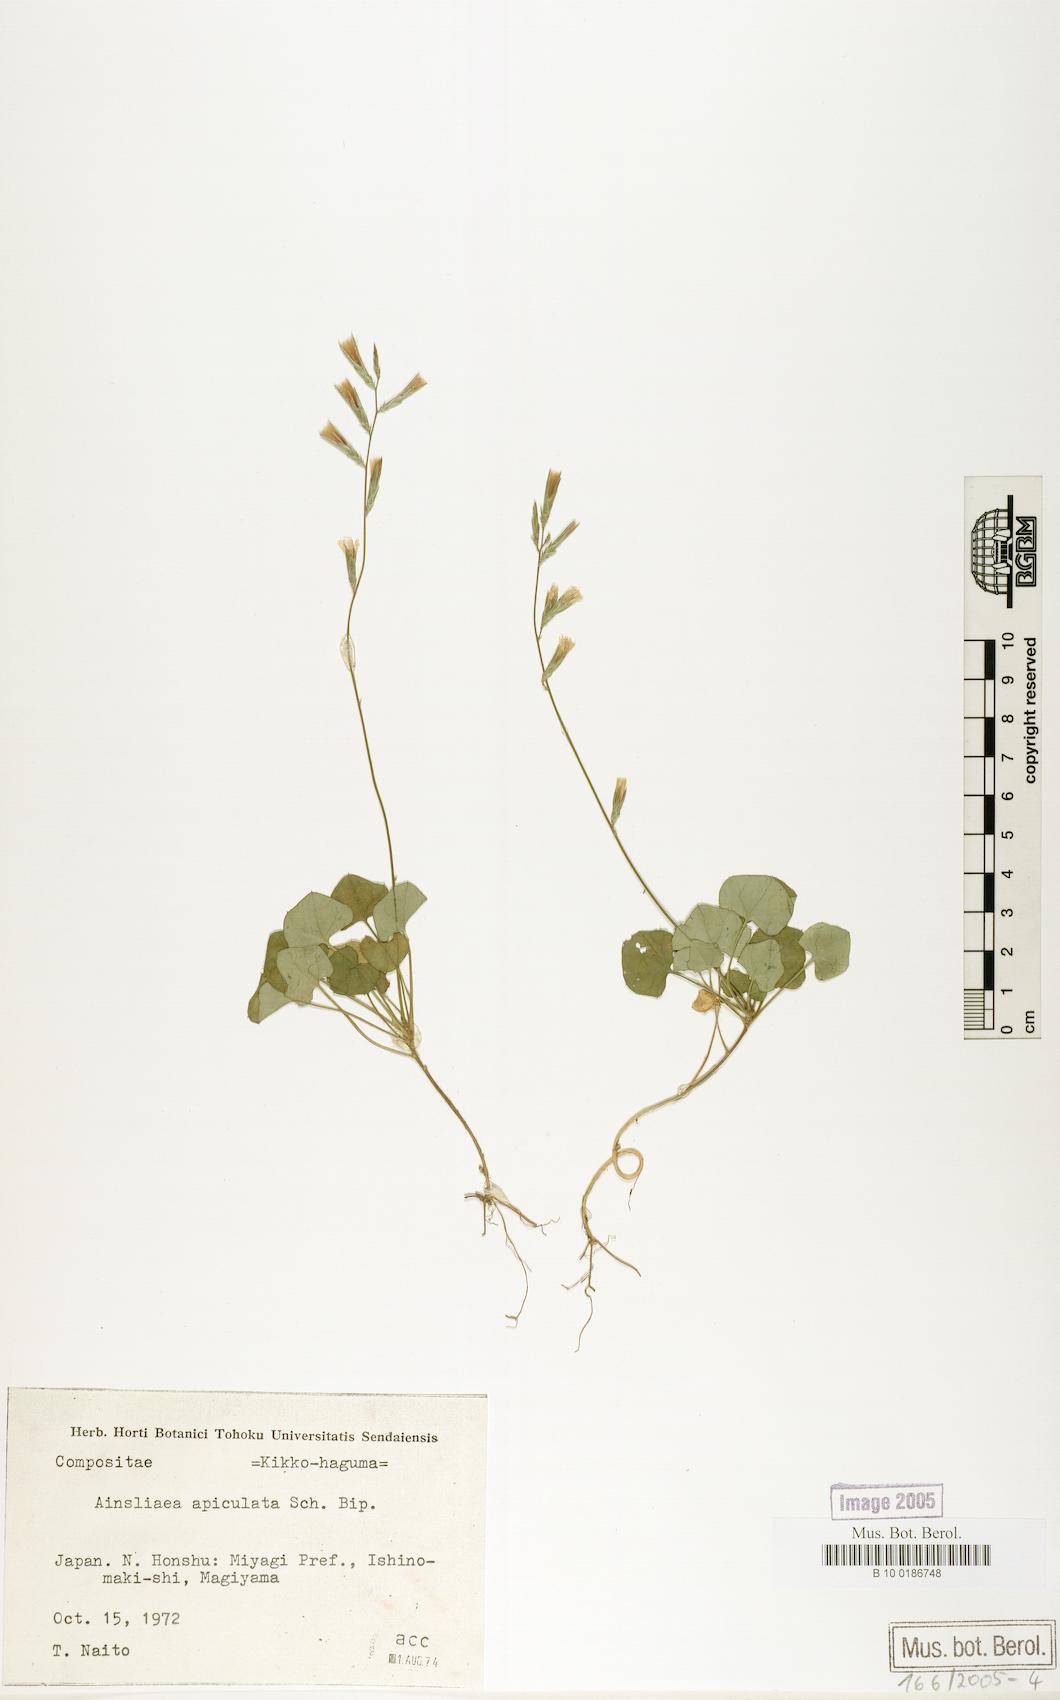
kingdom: Plantae
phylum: Tracheophyta
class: Magnoliopsida
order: Asterales
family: Asteraceae
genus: Ainsliaea
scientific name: Ainsliaea apiculata
